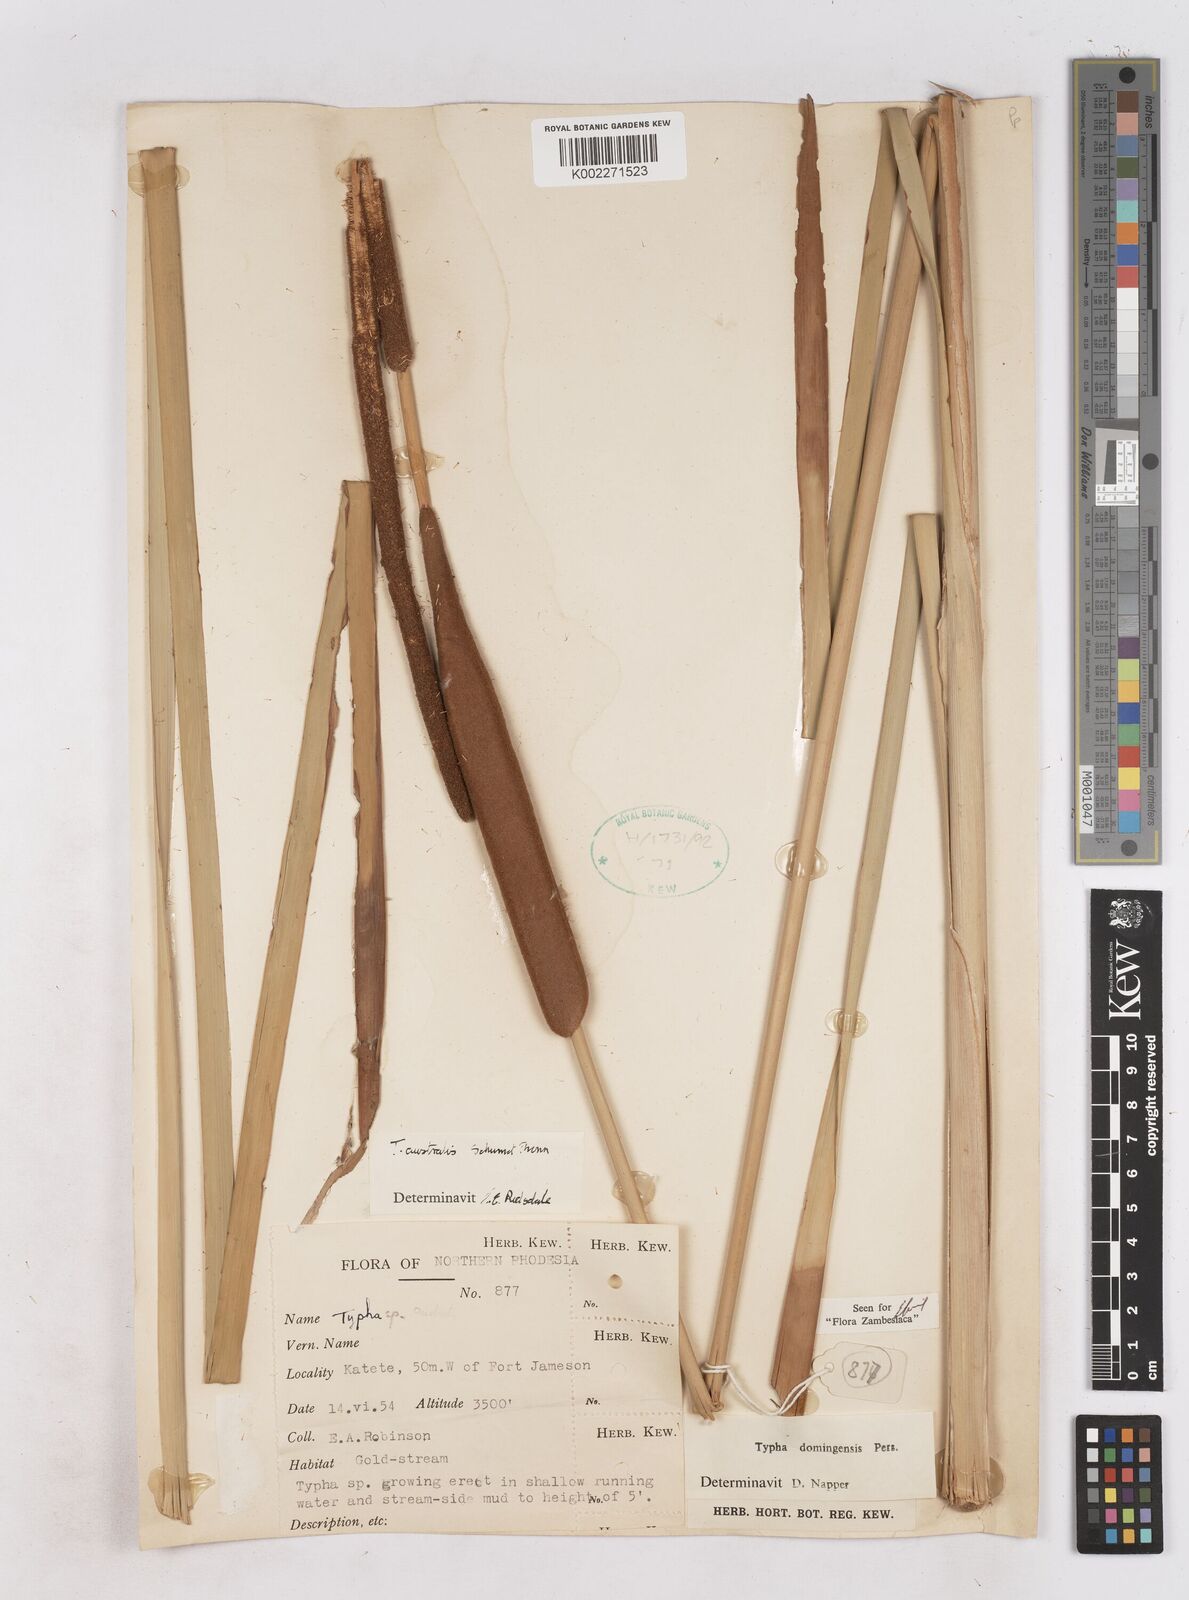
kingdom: Plantae
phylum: Tracheophyta
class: Liliopsida
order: Poales
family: Typhaceae
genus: Typha
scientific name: Typha domingensis
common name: Southern cattail
